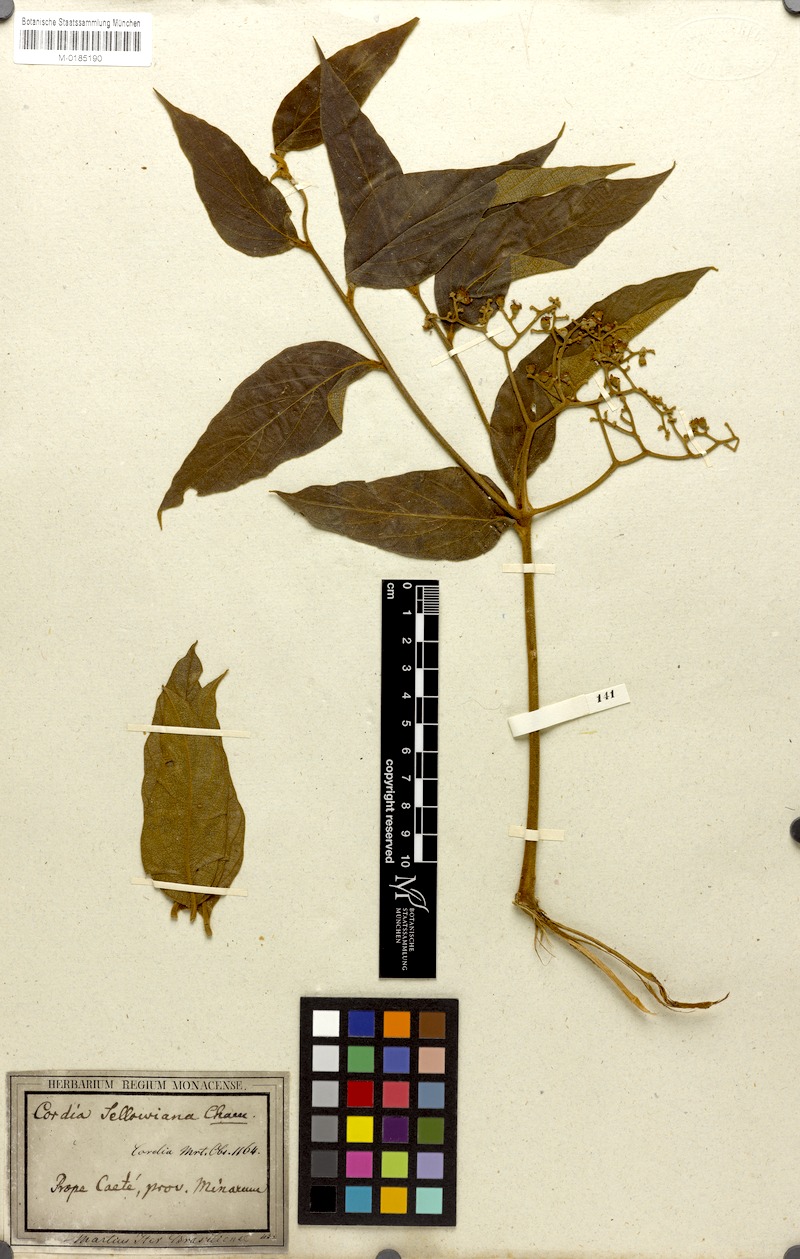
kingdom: Plantae
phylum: Tracheophyta
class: Magnoliopsida
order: Boraginales
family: Cordiaceae
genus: Cordia
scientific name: Cordia sellowiana
